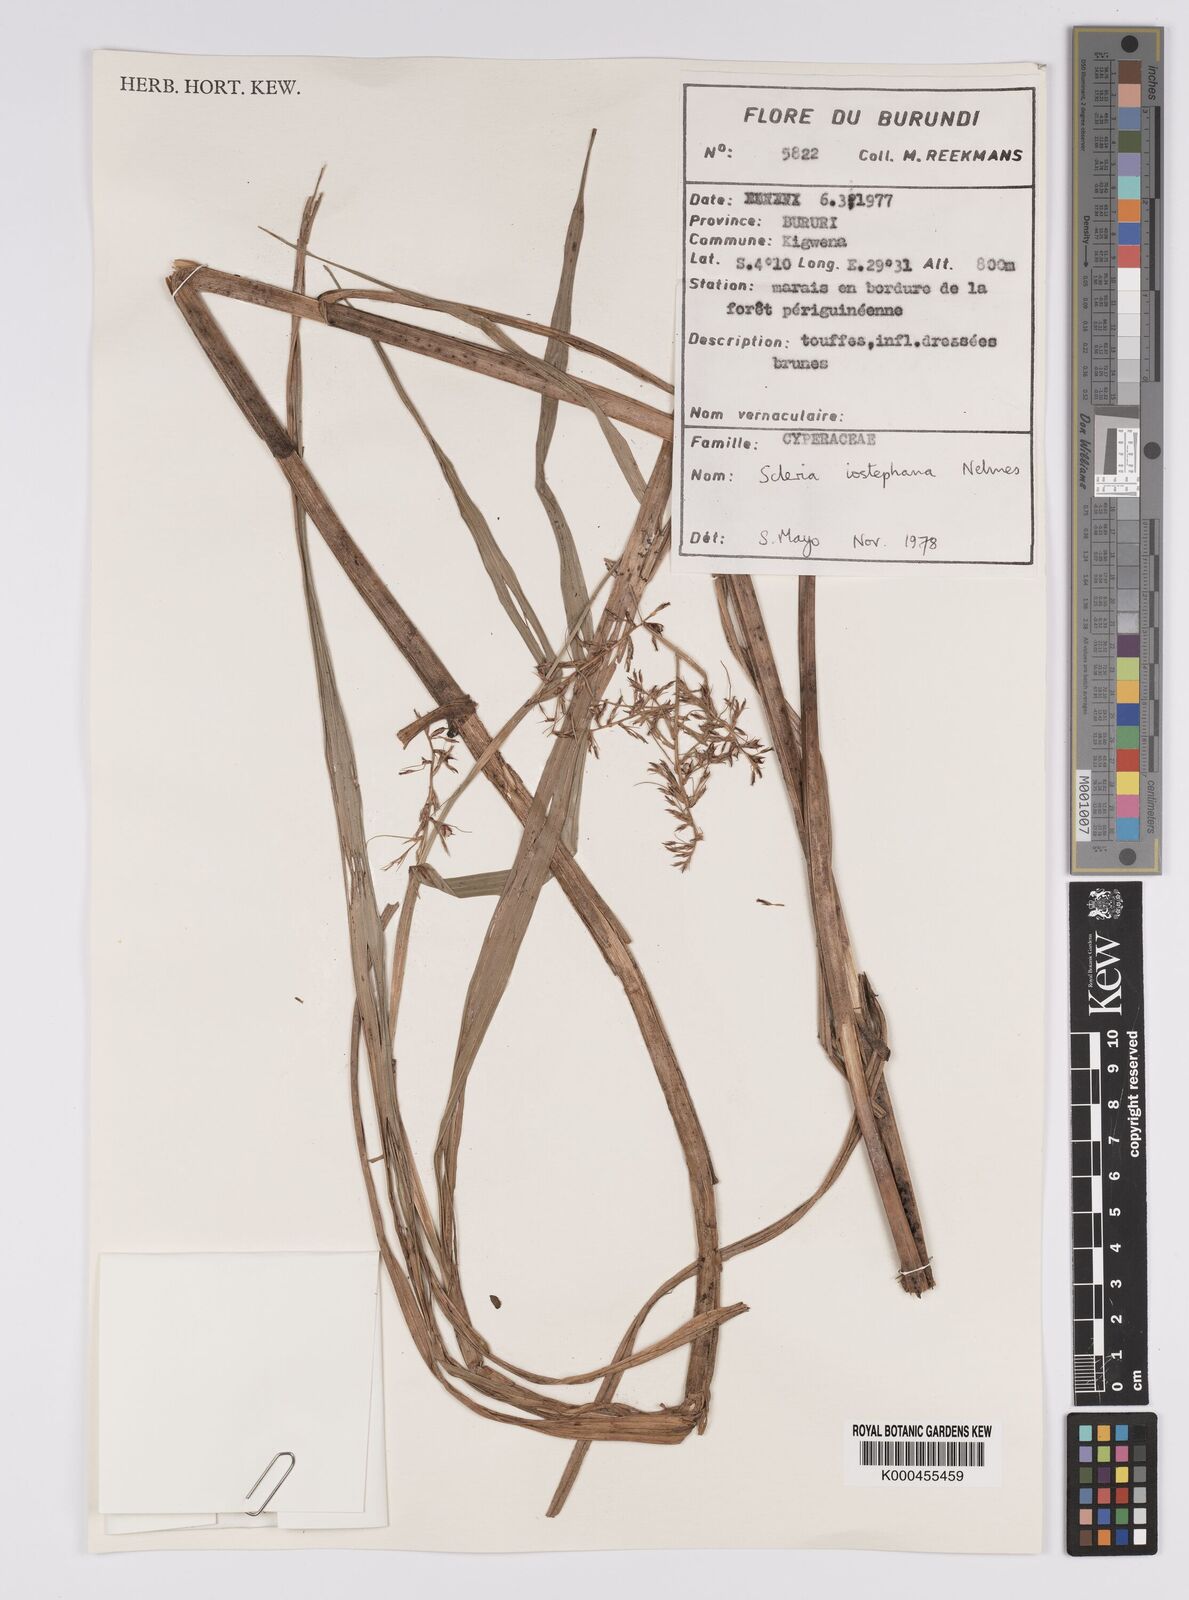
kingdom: Plantae
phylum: Tracheophyta
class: Liliopsida
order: Poales
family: Cyperaceae
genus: Scleria
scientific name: Scleria iostephana
